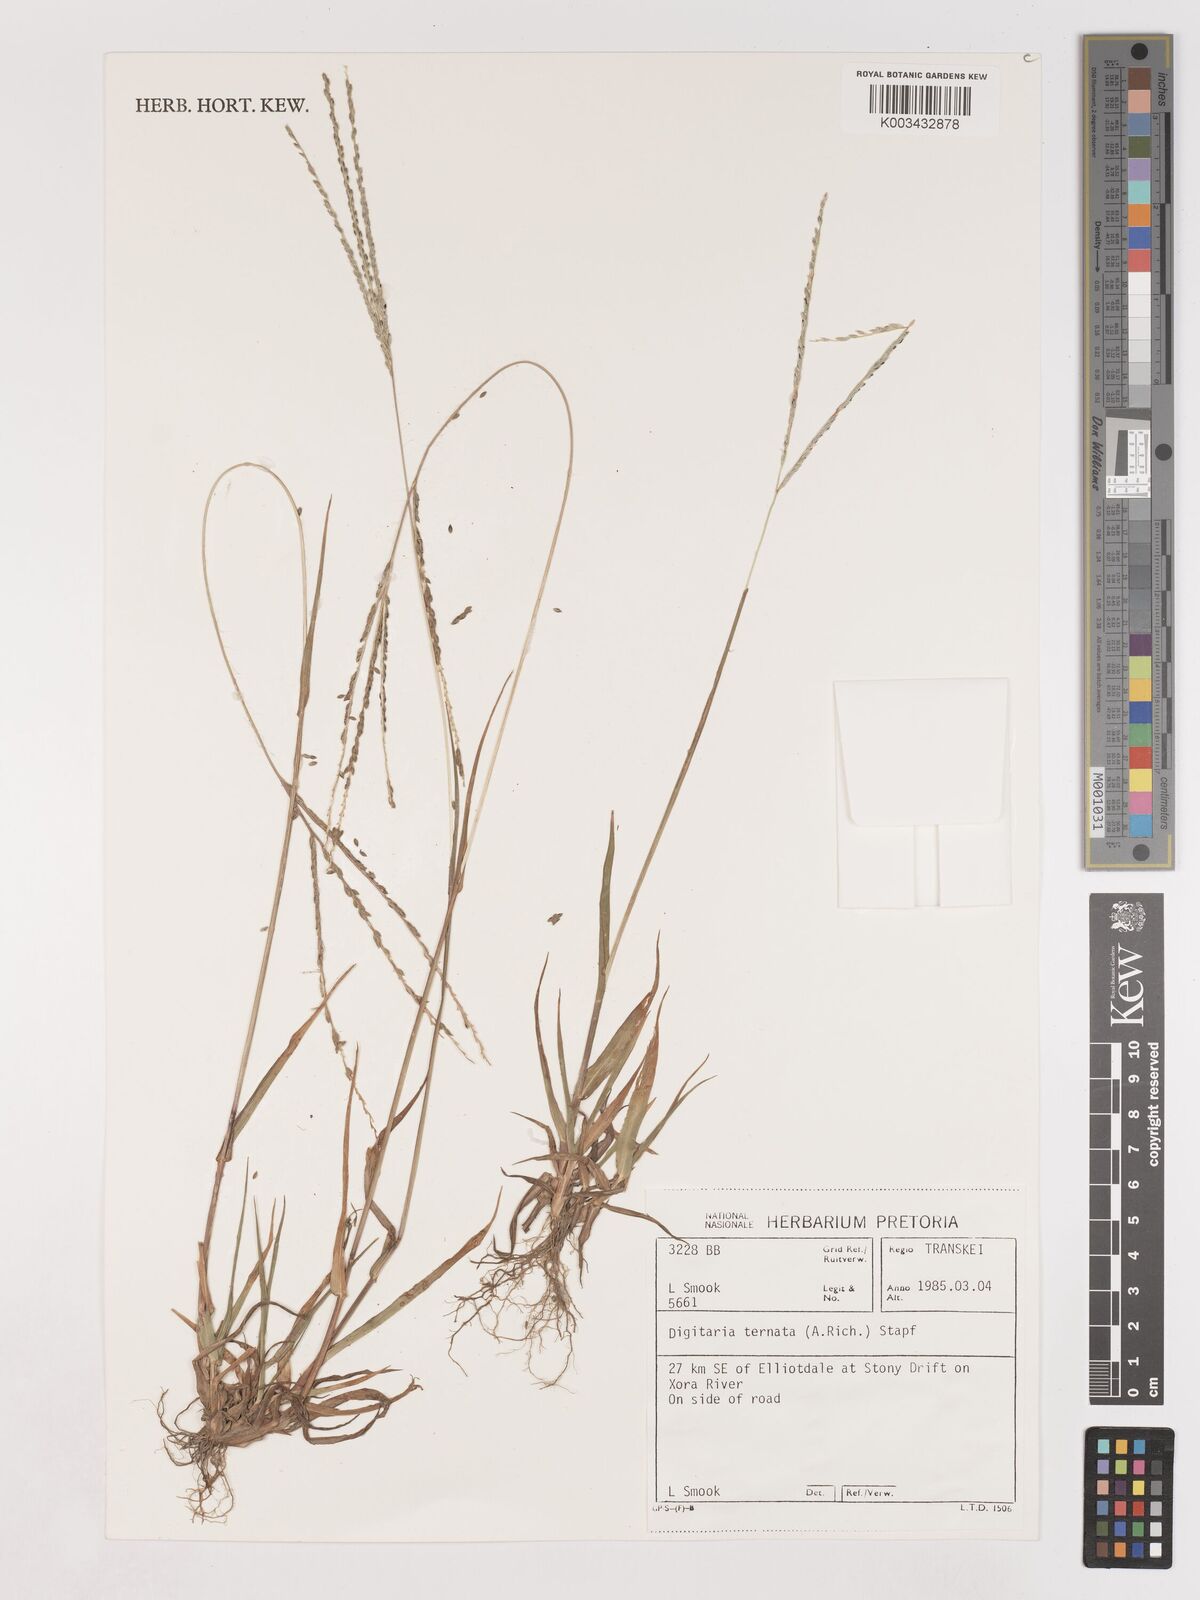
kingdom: Plantae
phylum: Tracheophyta
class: Liliopsida
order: Poales
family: Poaceae
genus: Digitaria
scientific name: Digitaria ternata
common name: Blackseed crabgrass
